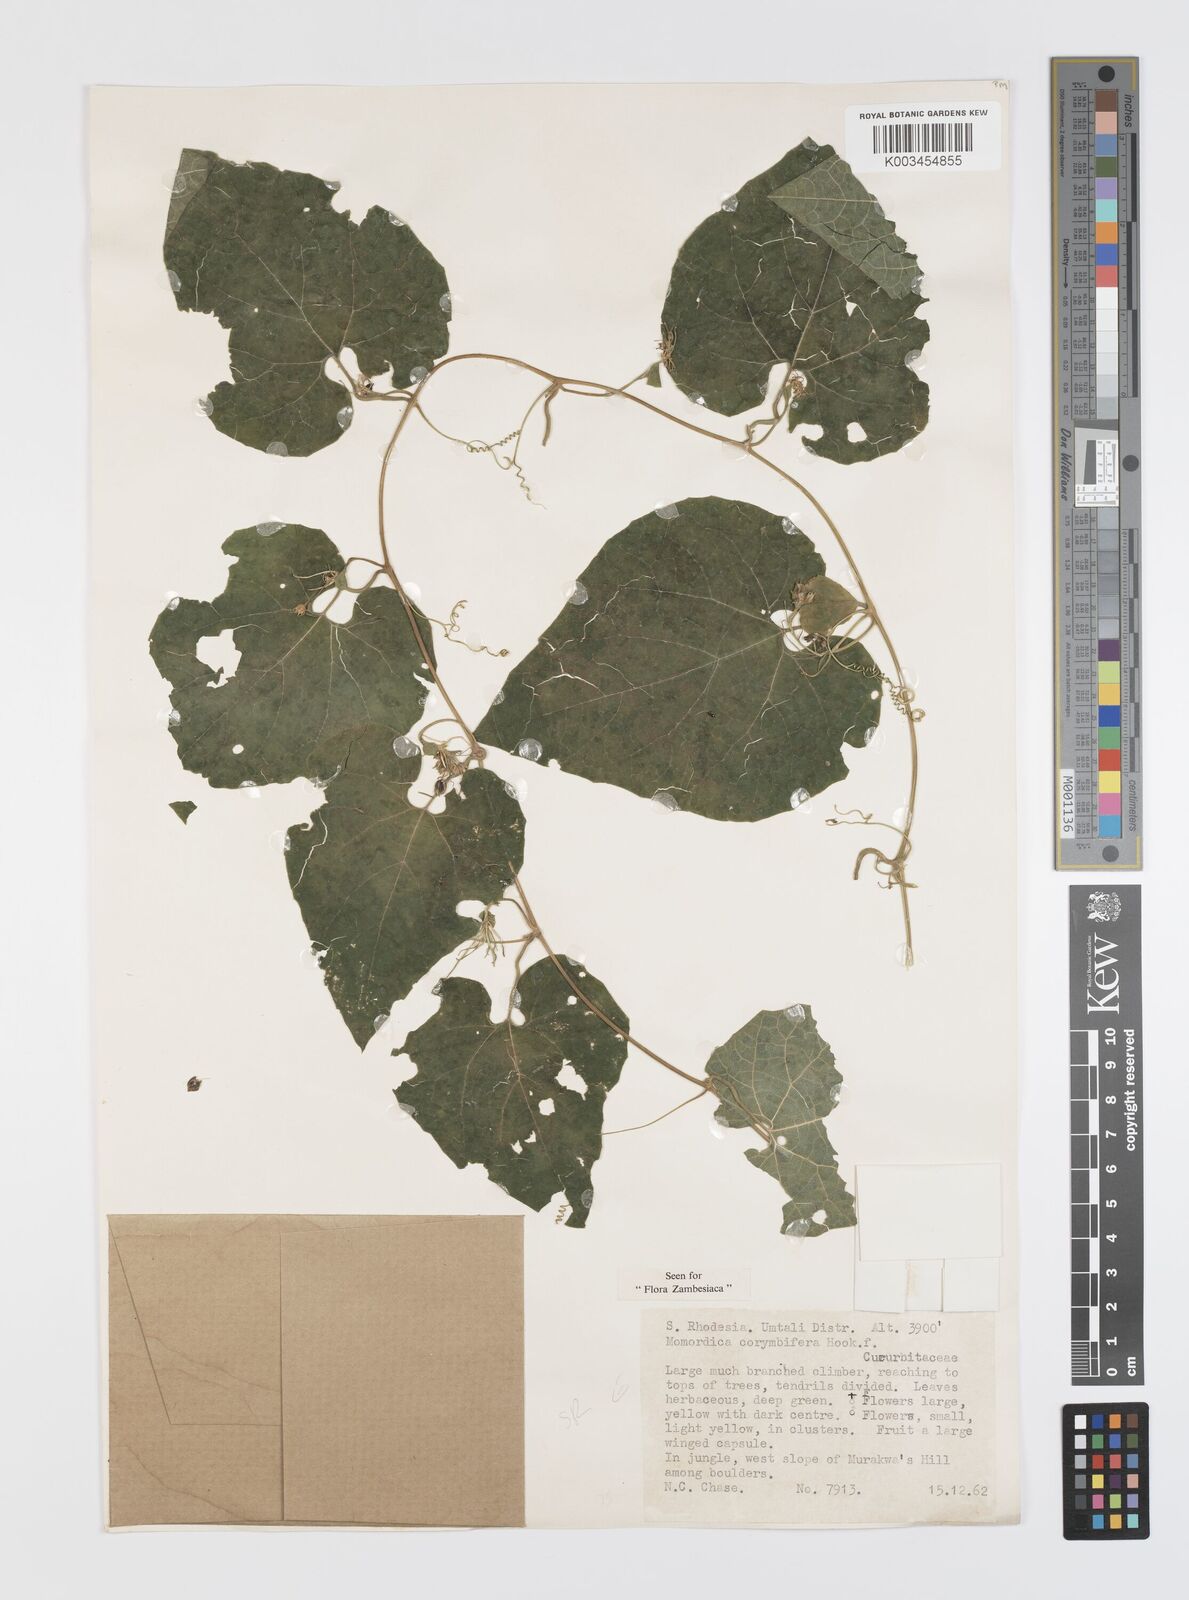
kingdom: Plantae
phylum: Tracheophyta
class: Magnoliopsida
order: Cucurbitales
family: Cucurbitaceae
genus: Momordica
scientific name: Momordica corymbifera
